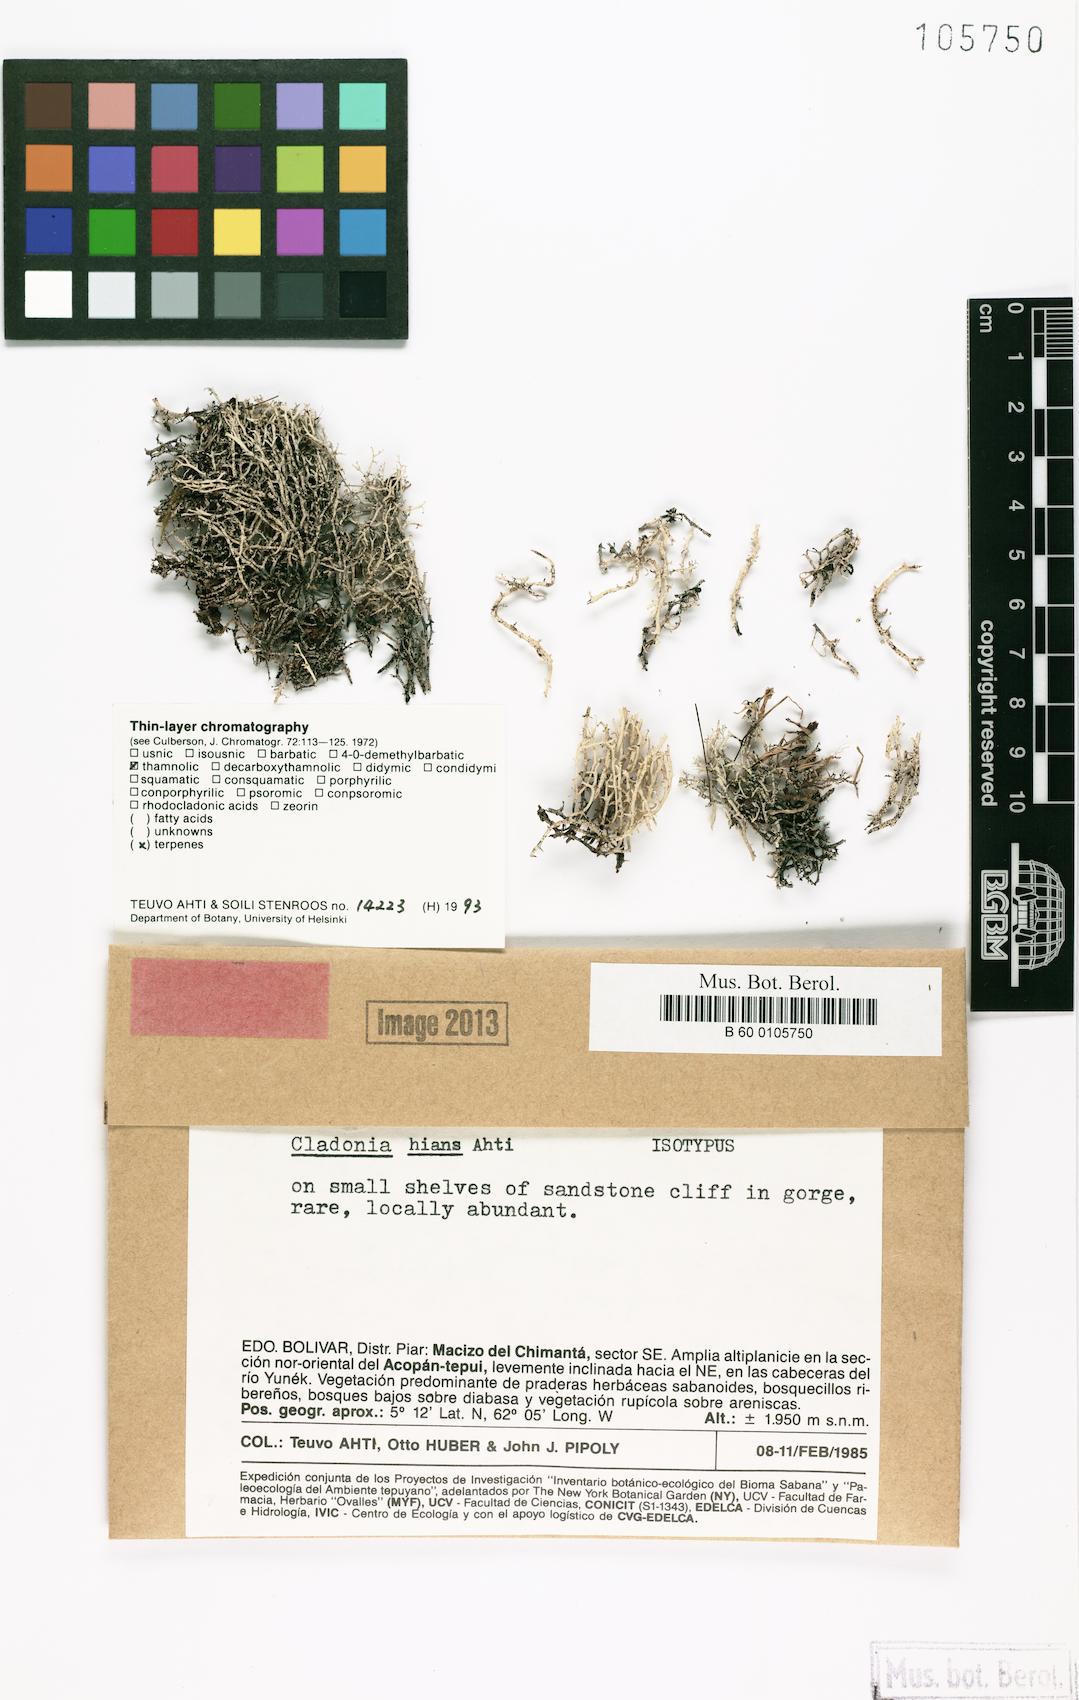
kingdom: Fungi
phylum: Ascomycota
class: Lecanoromycetes
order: Lecanorales
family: Cladoniaceae
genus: Cladonia
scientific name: Cladonia hians
